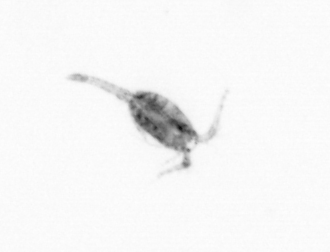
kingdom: Animalia
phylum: Arthropoda
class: Copepoda
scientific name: Copepoda
